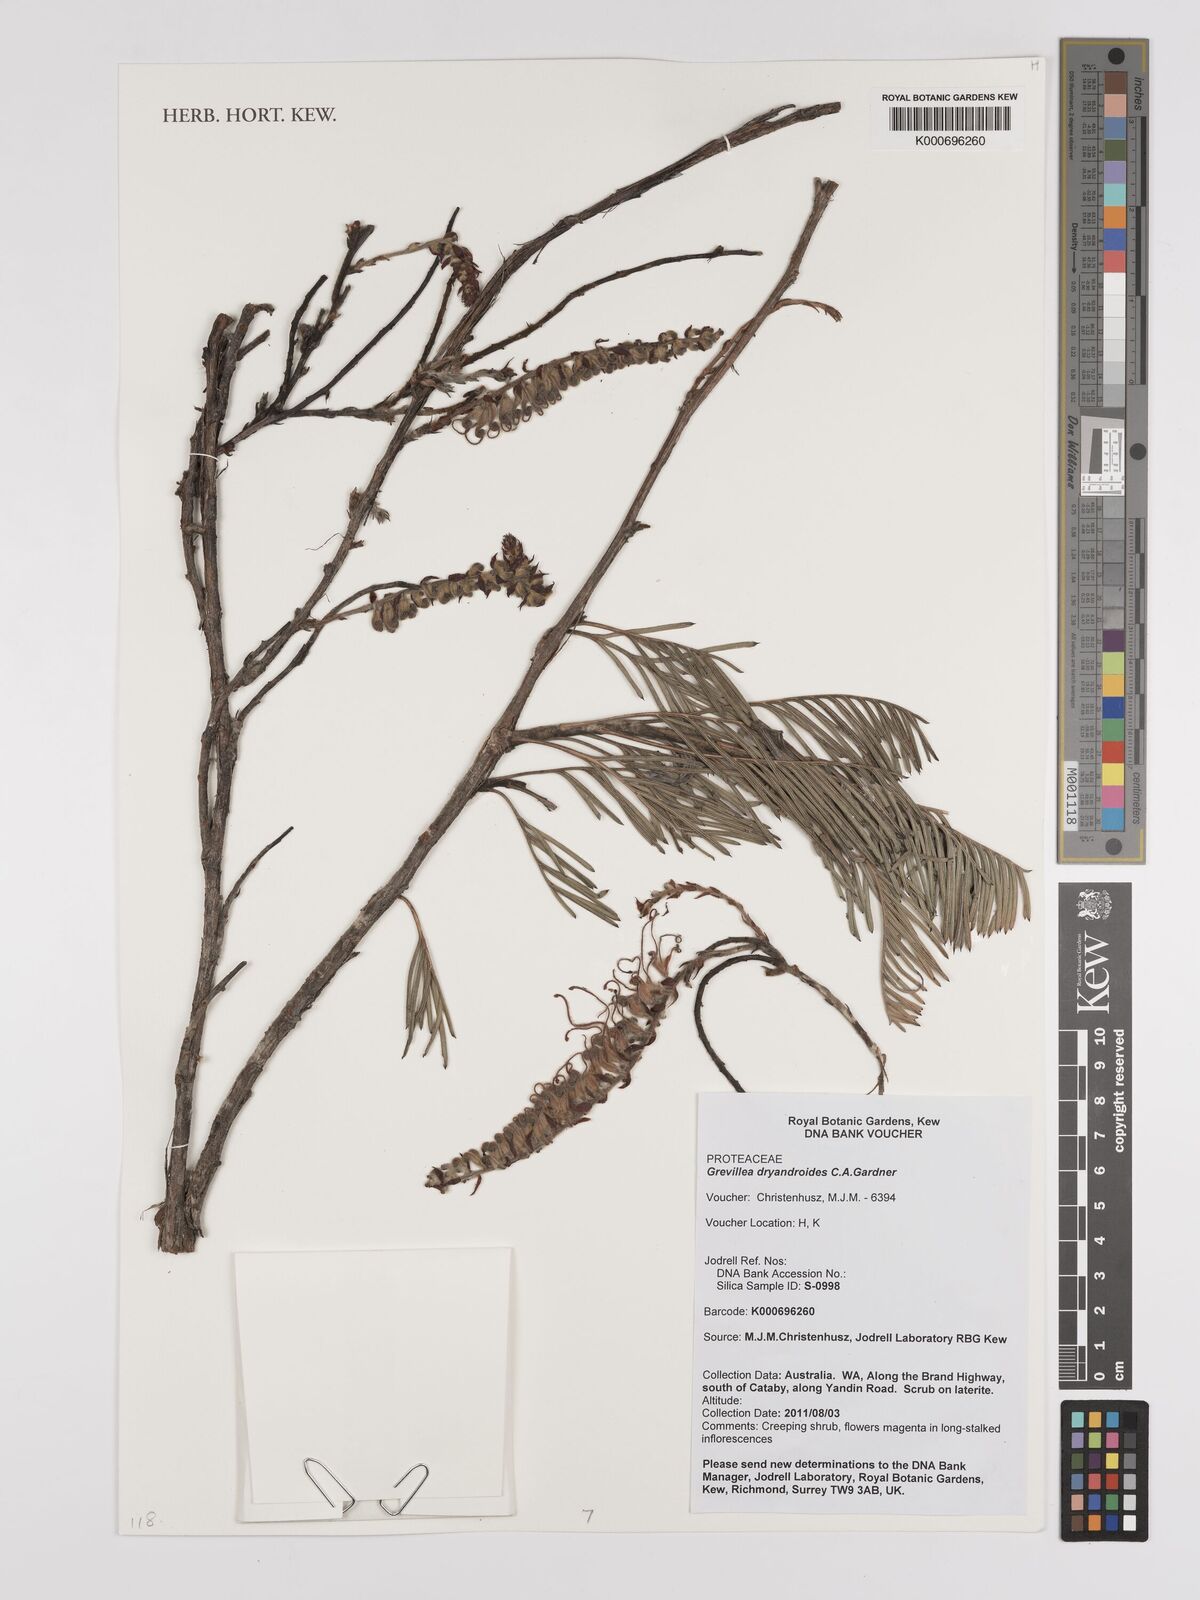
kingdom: Plantae
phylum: Tracheophyta
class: Magnoliopsida
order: Proteales
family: Proteaceae
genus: Grevillea
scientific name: Grevillea dryandroides
